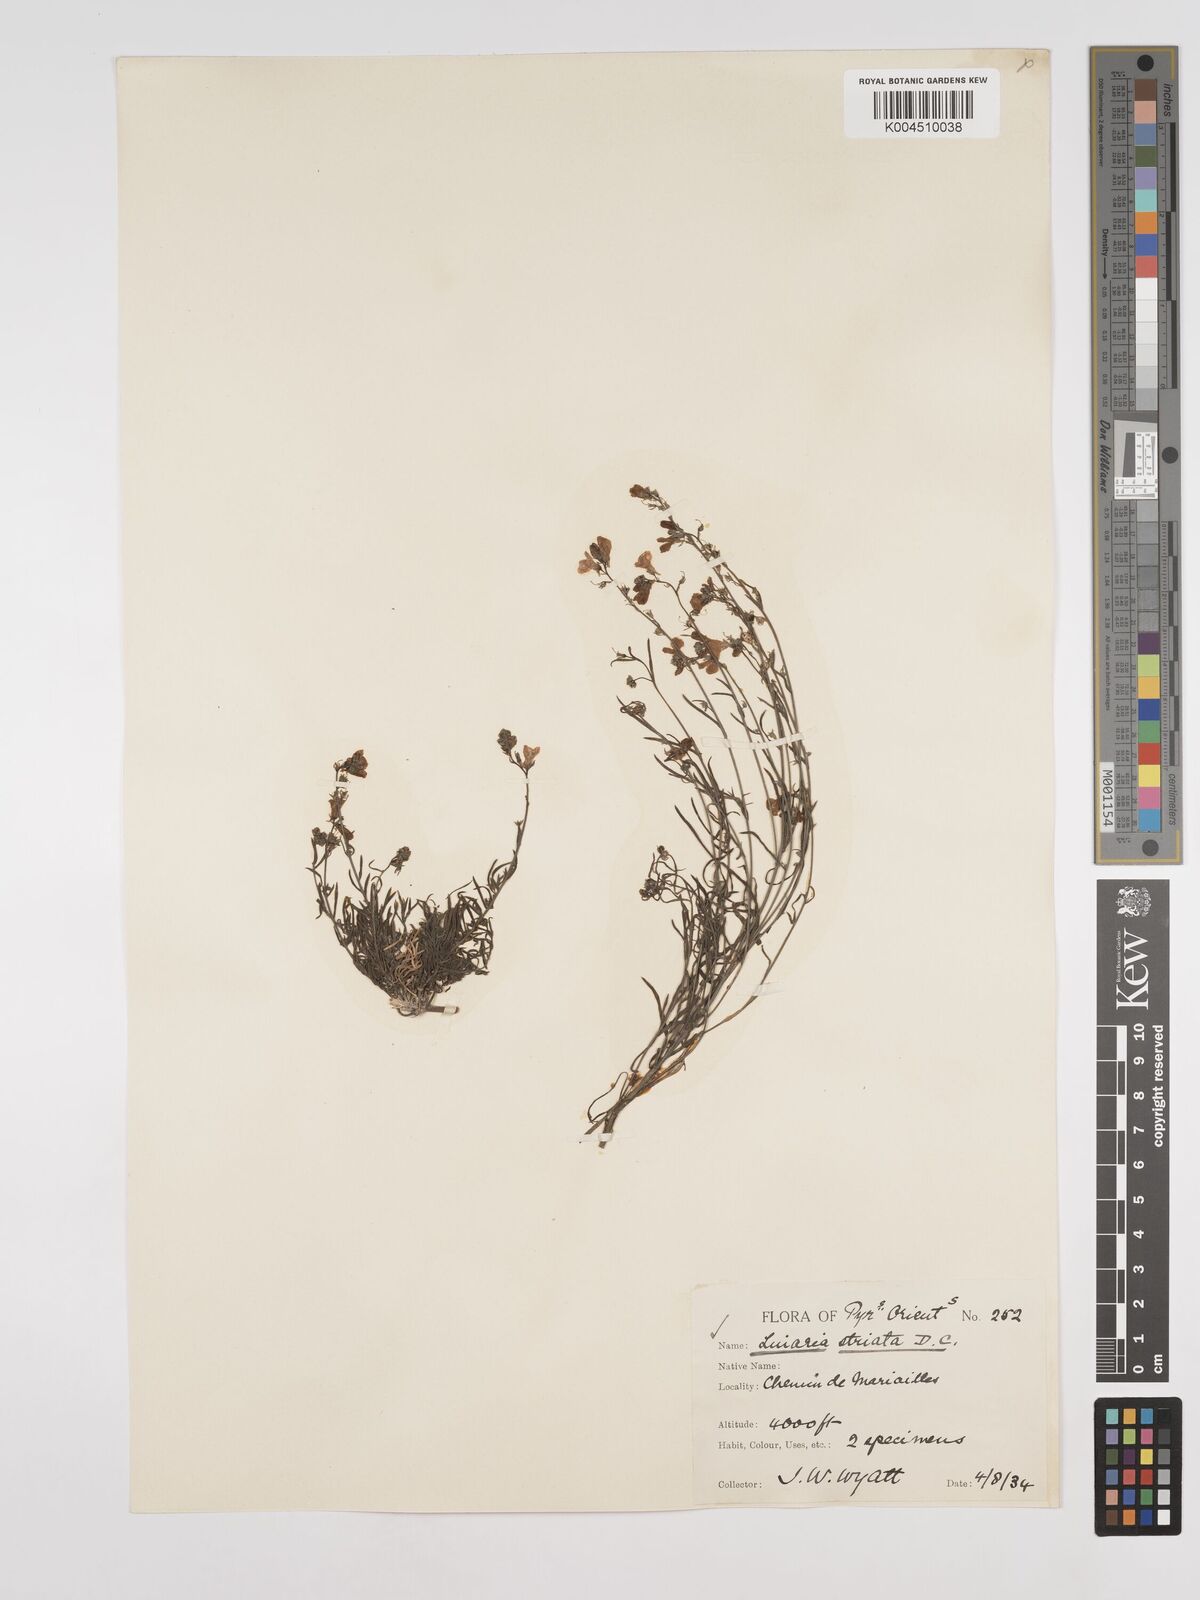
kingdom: Plantae
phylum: Tracheophyta
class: Magnoliopsida
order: Lamiales
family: Plantaginaceae
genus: Linaria
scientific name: Linaria repens
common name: Pale toadflax
